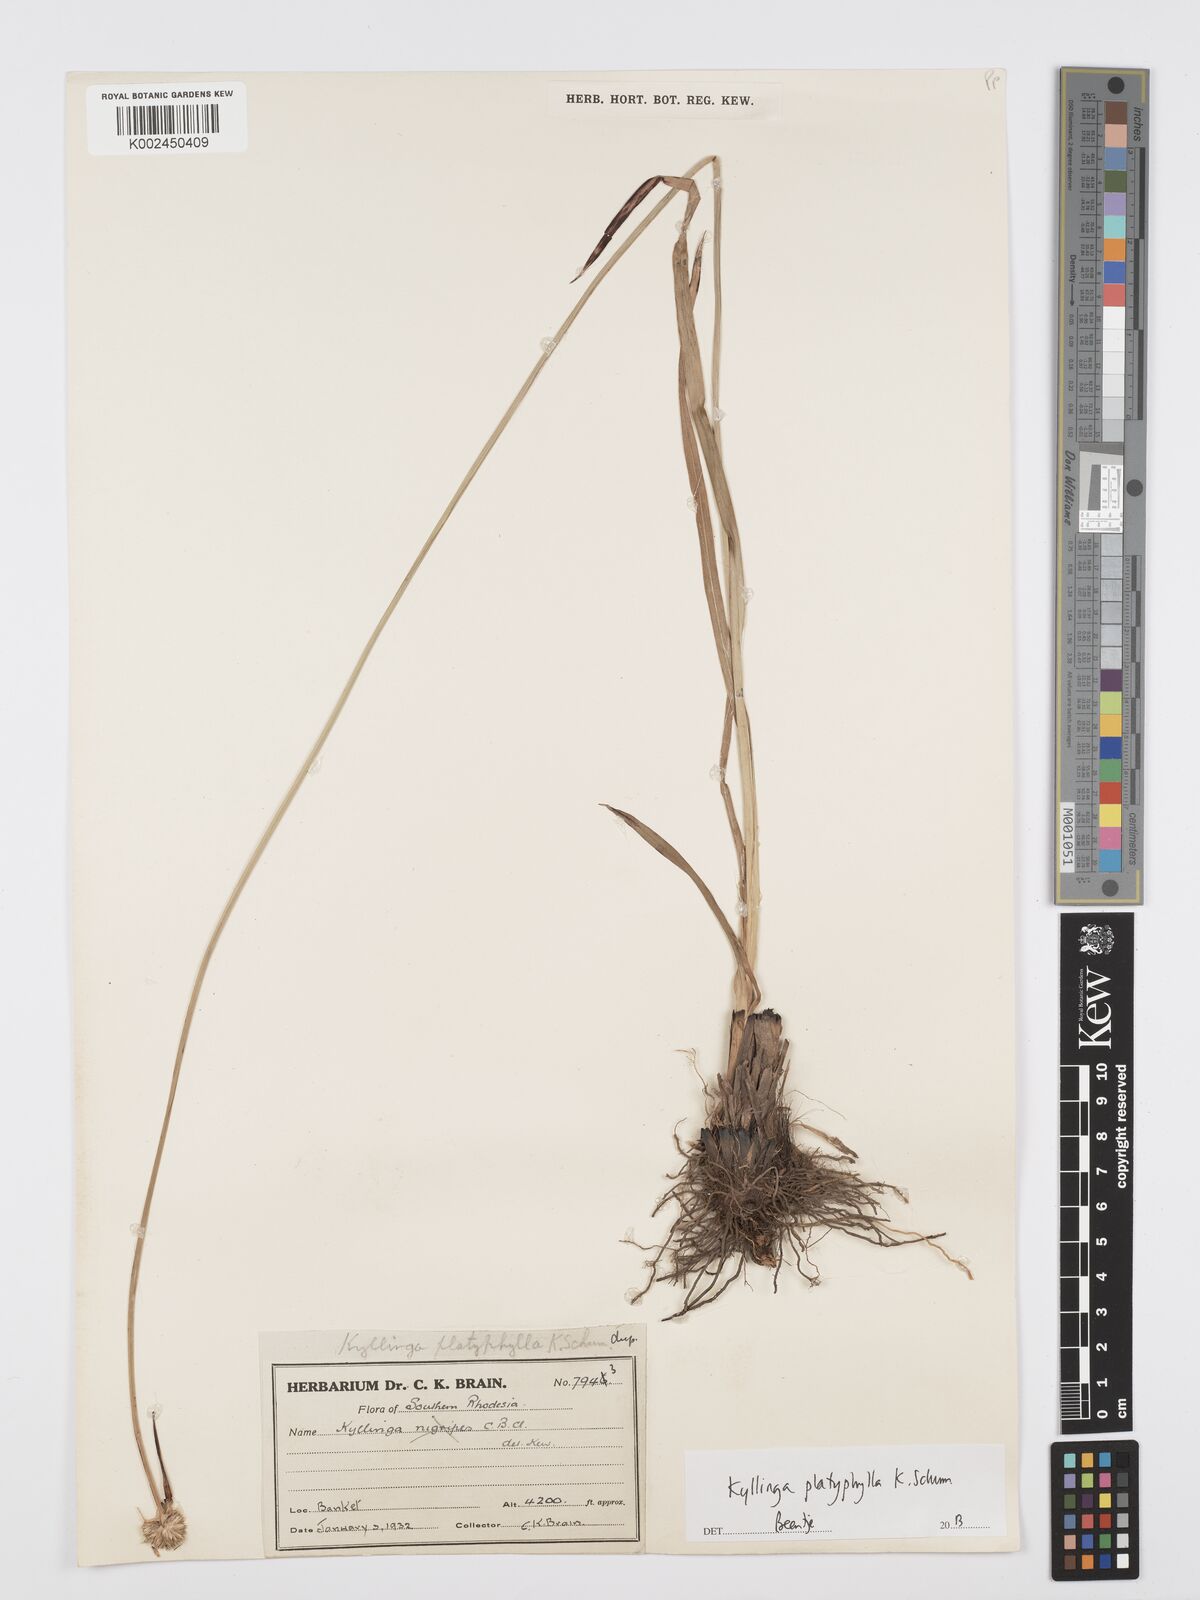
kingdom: Plantae
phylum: Tracheophyta
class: Liliopsida
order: Poales
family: Cyperaceae
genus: Cyperus
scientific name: Cyperus
